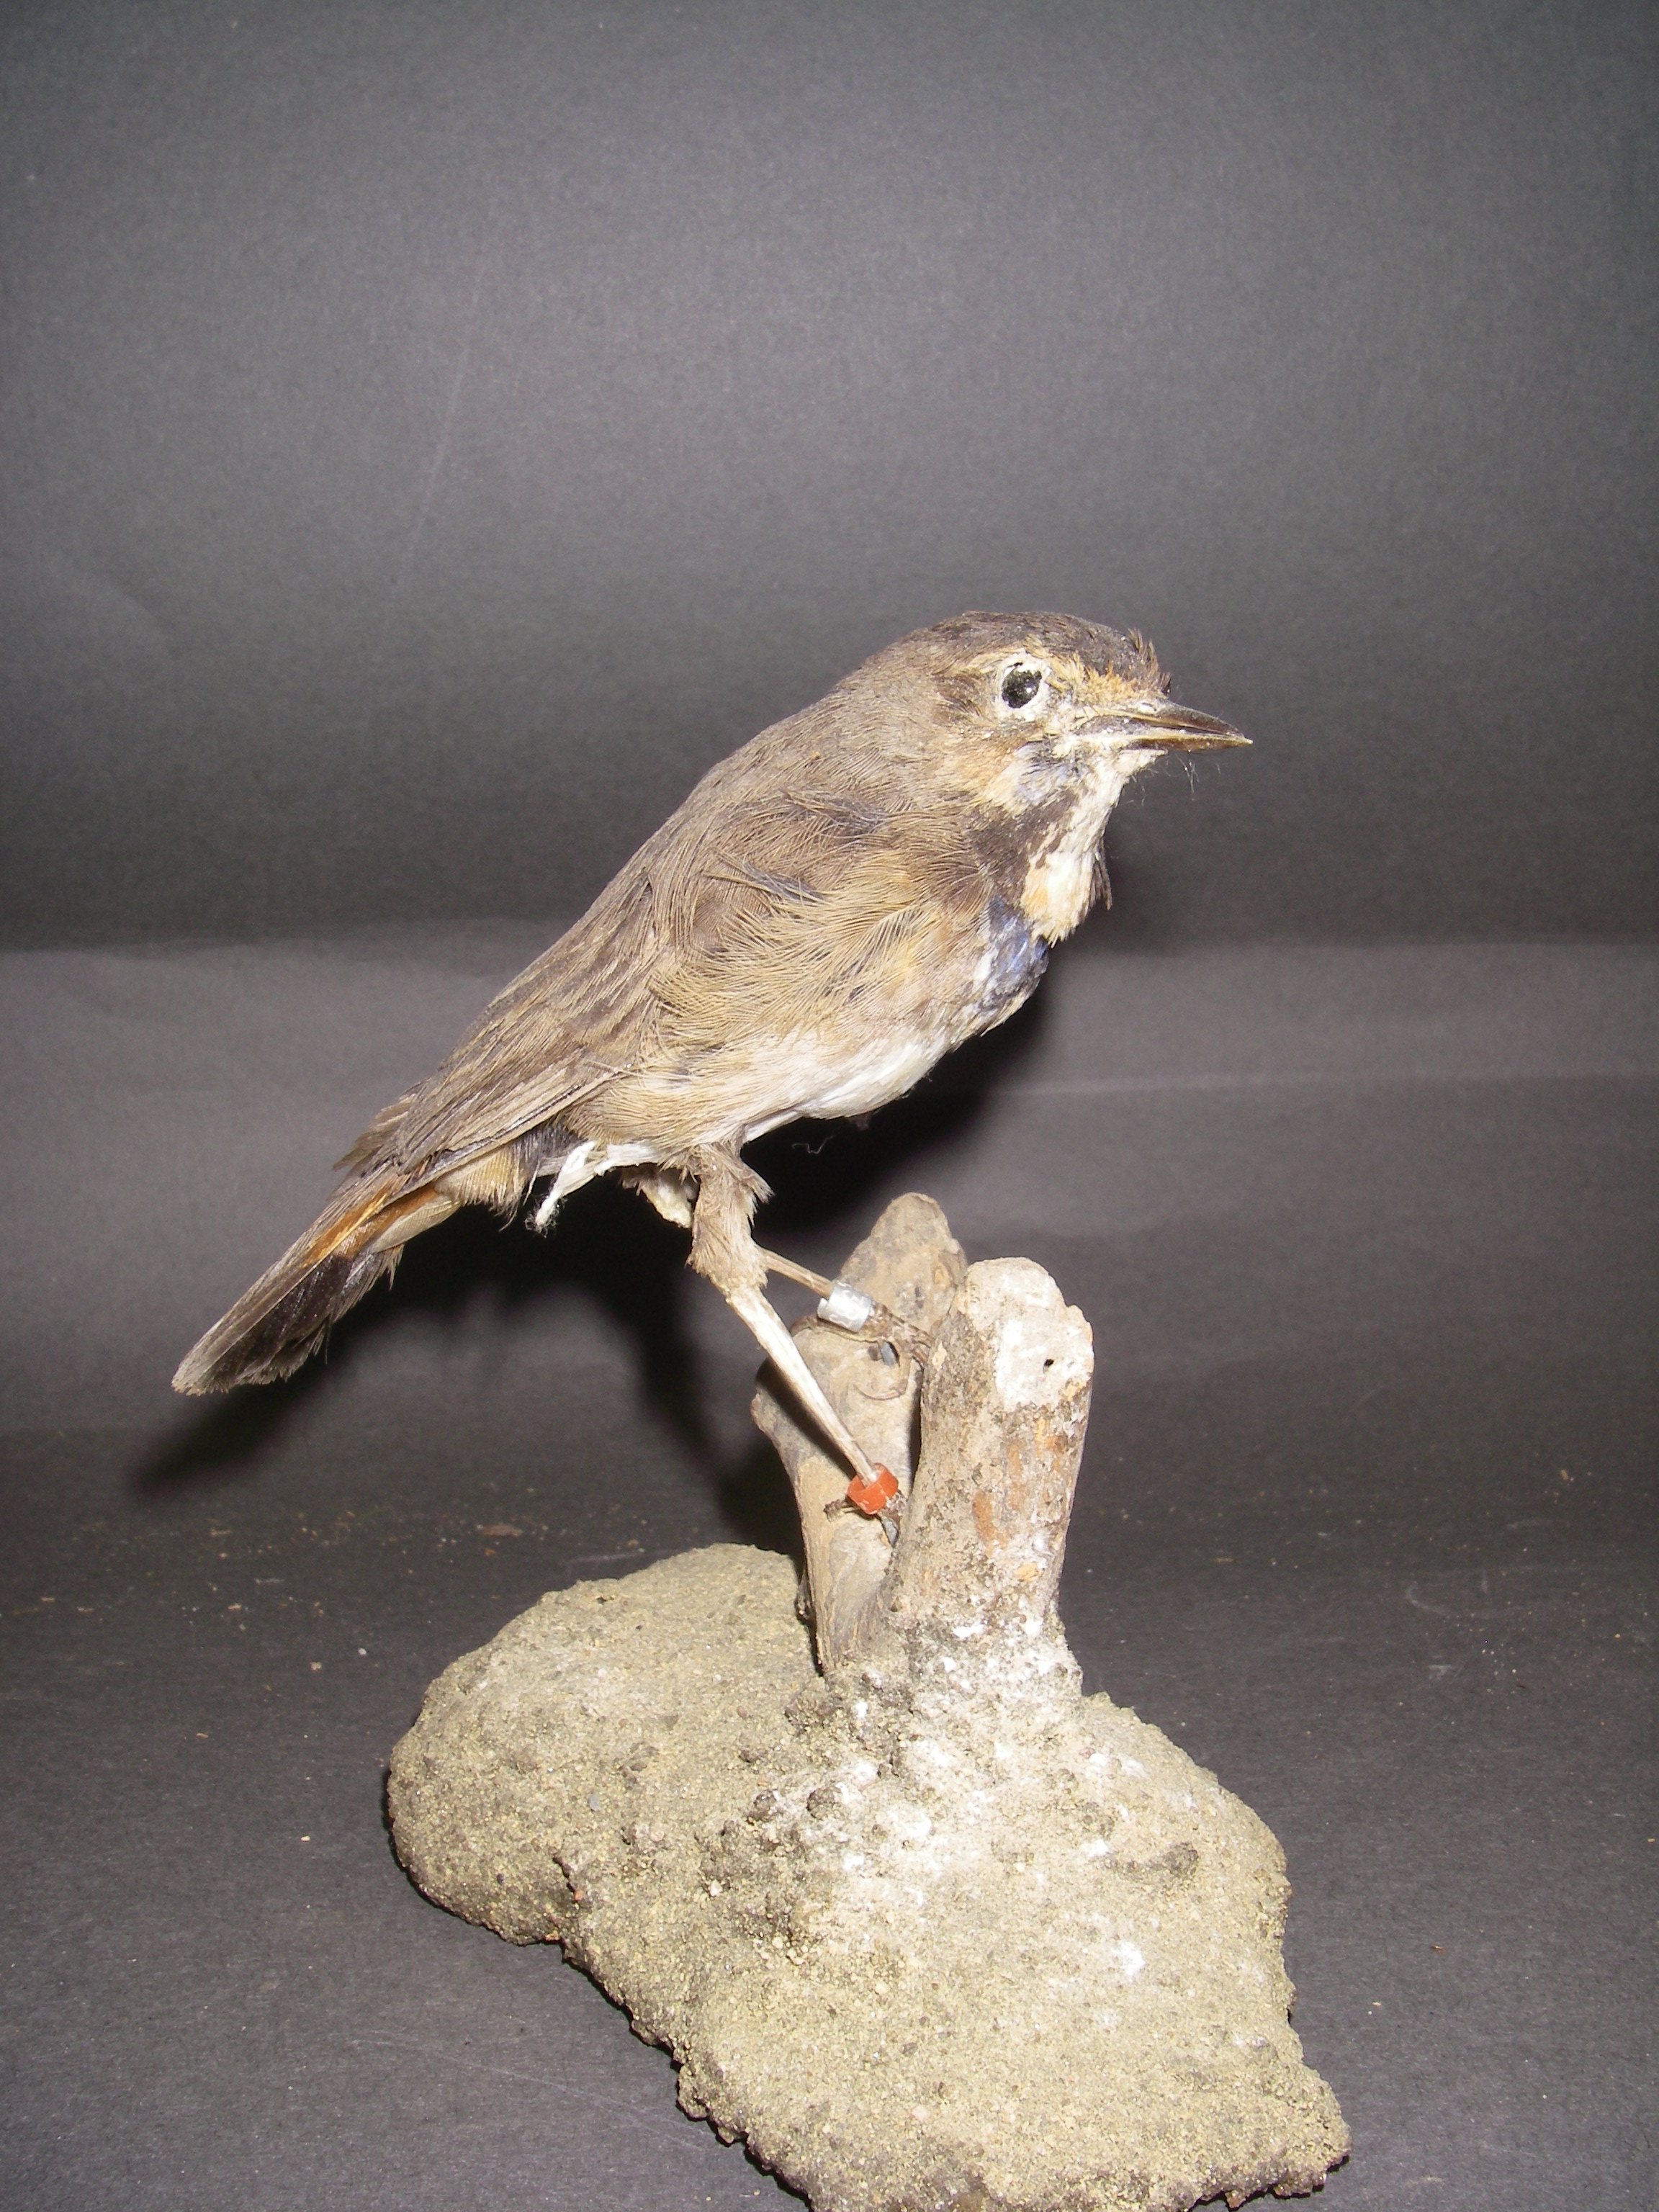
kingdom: Animalia
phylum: Chordata
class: Aves
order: Passeriformes
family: Muscicapidae
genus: Luscinia
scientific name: Luscinia svecica
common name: Bluethroat
